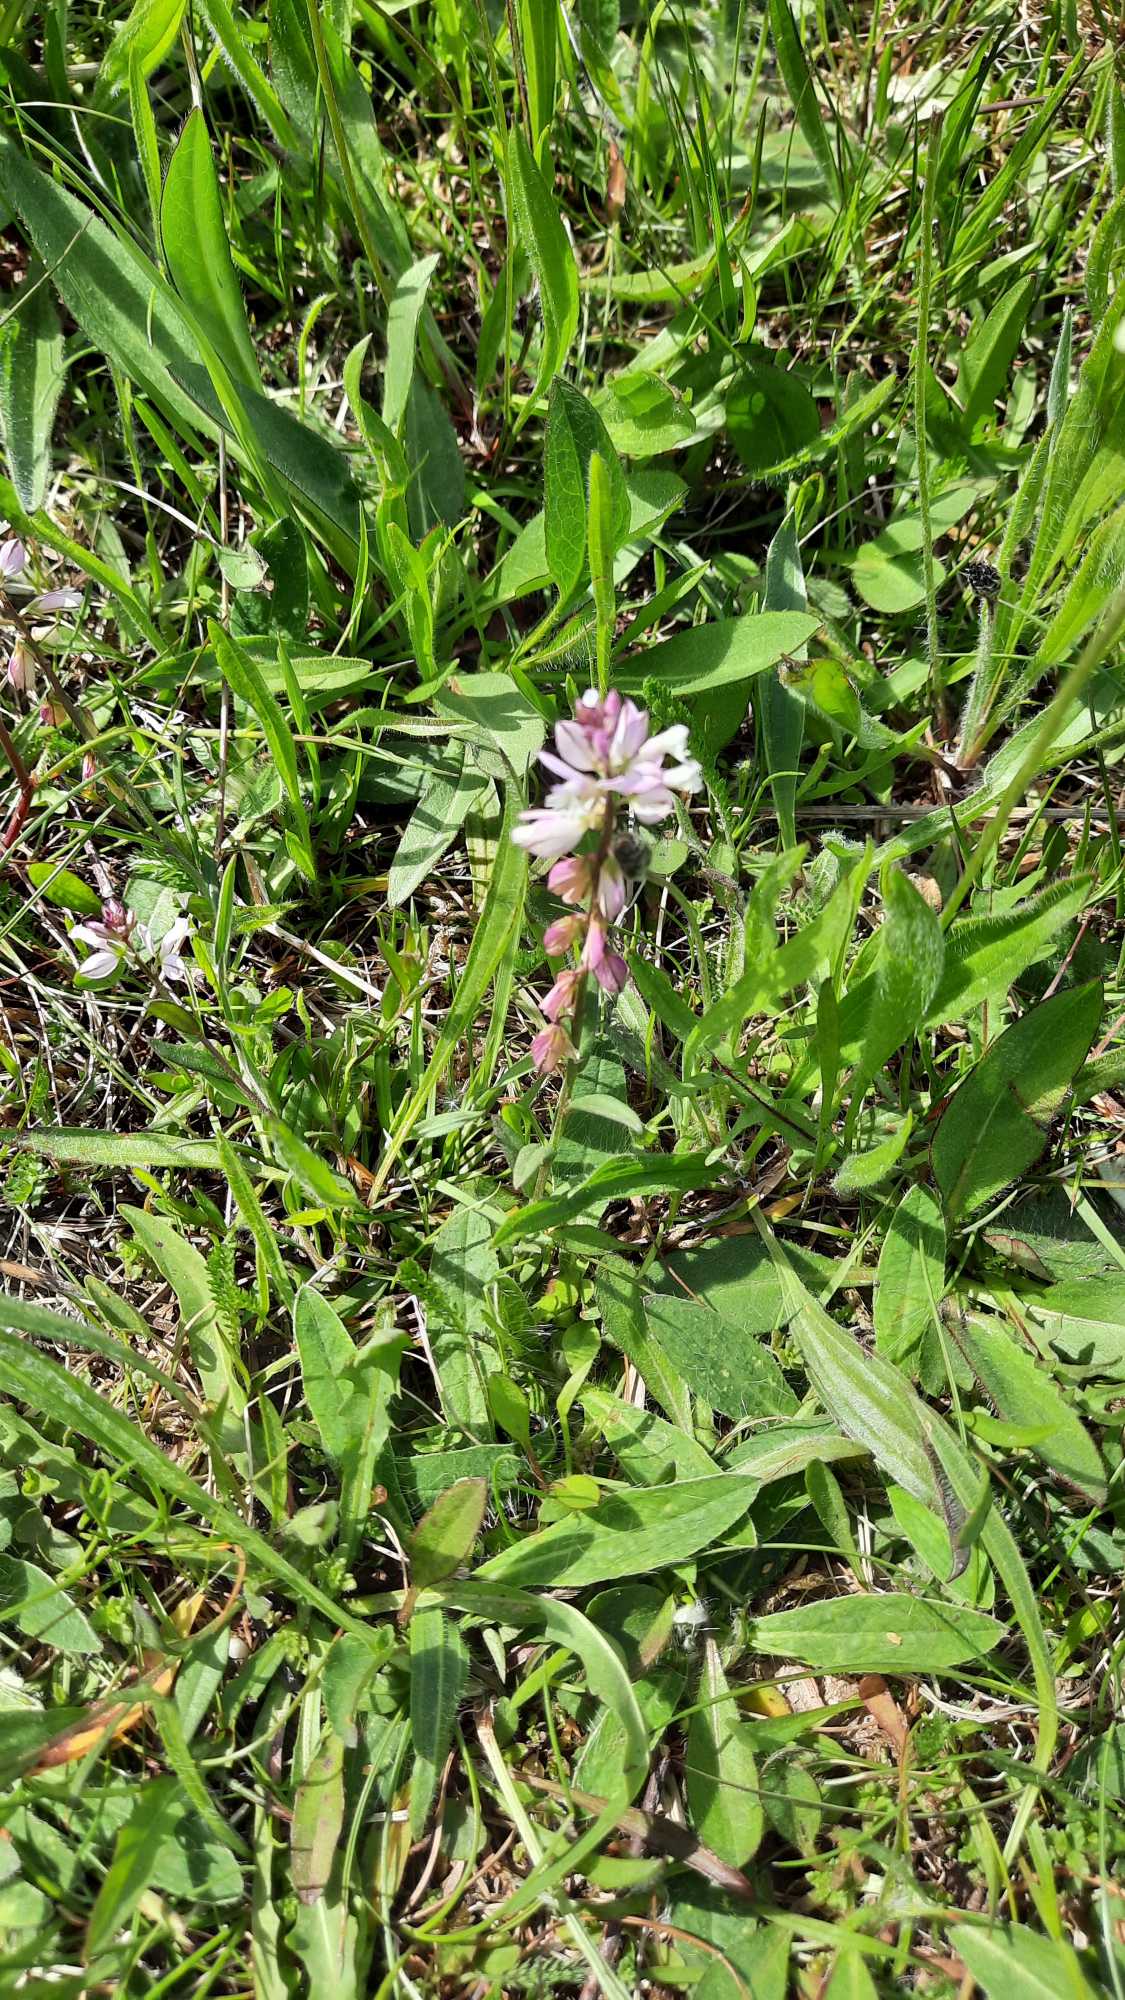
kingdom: Plantae
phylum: Tracheophyta
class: Magnoliopsida
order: Fabales
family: Polygalaceae
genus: Polygala
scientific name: Polygala vulgaris
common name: Almindelig mælkeurt
